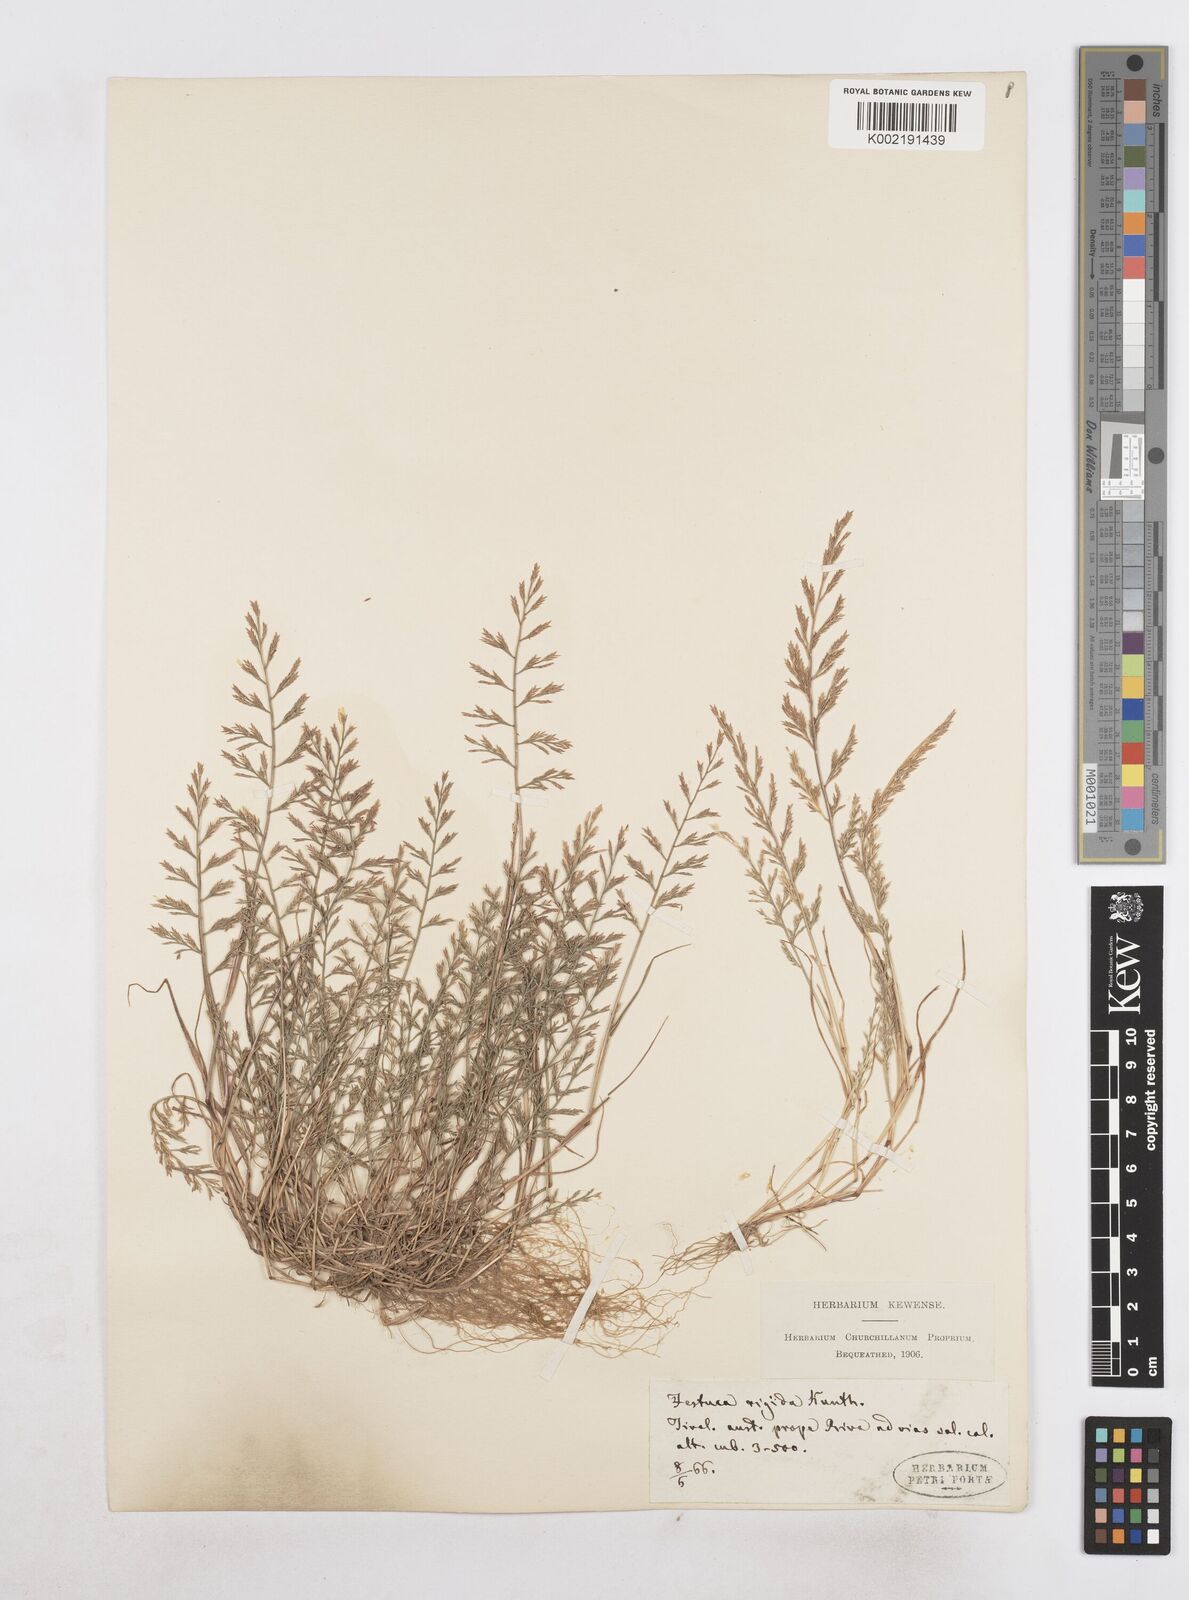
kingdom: Plantae
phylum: Tracheophyta
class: Liliopsida
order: Poales
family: Poaceae
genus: Catapodium
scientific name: Catapodium rigidum
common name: Fern-grass
